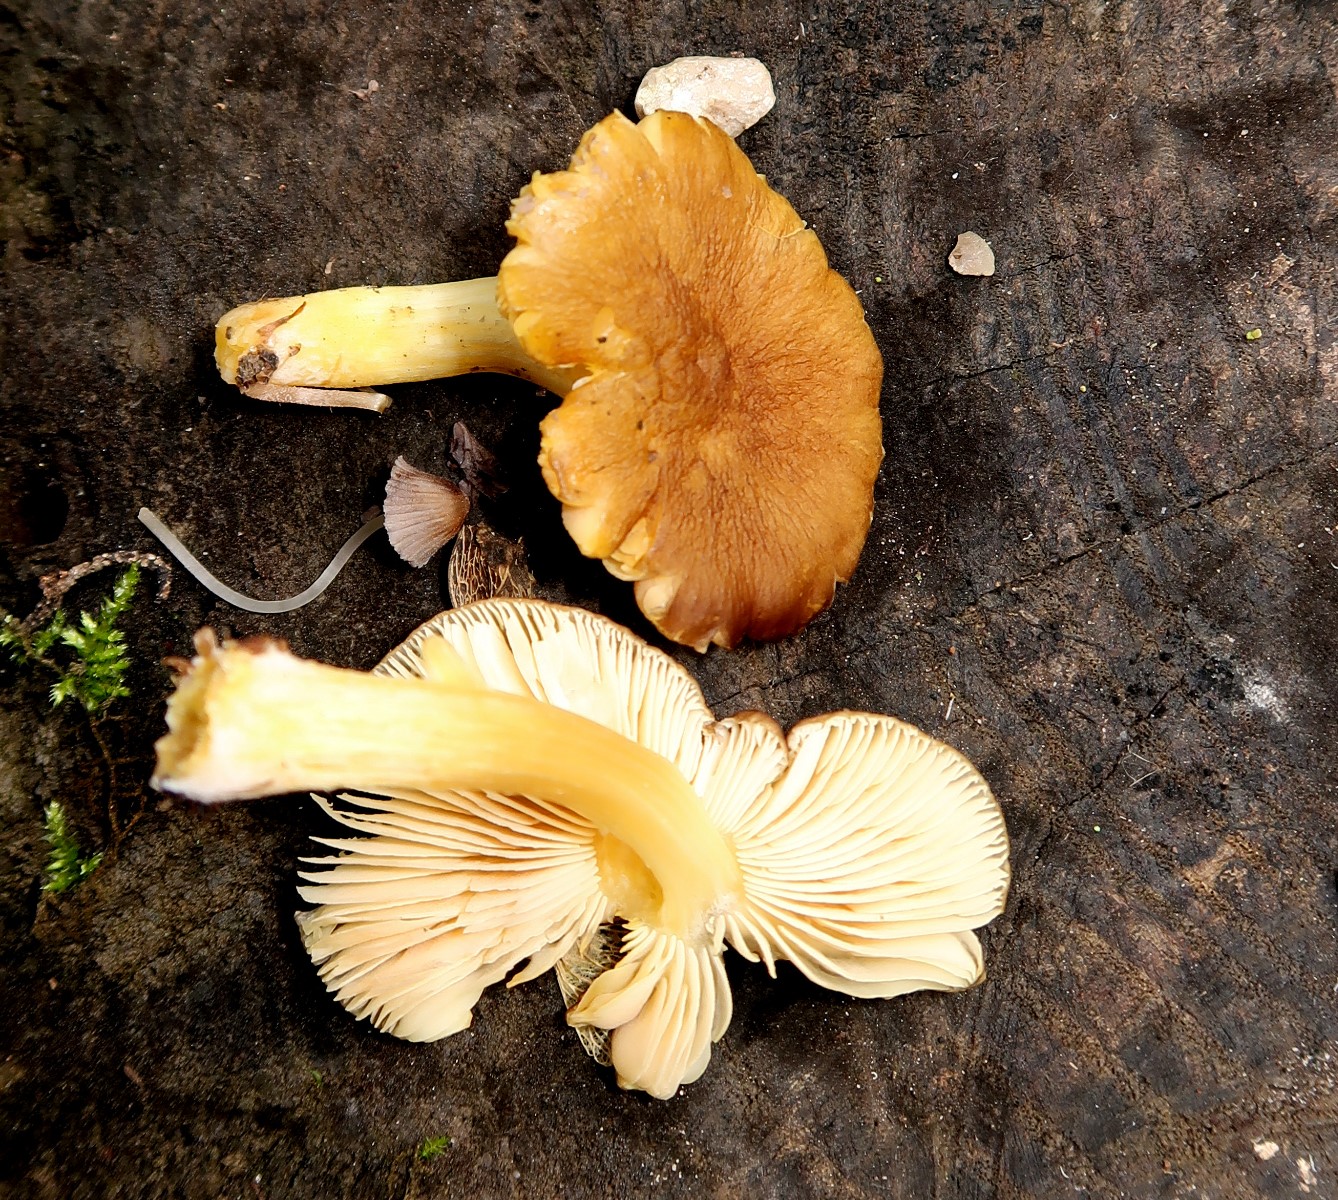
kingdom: Fungi
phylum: Basidiomycota
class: Agaricomycetes
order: Agaricales
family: Pluteaceae
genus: Pluteus
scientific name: Pluteus romellii
